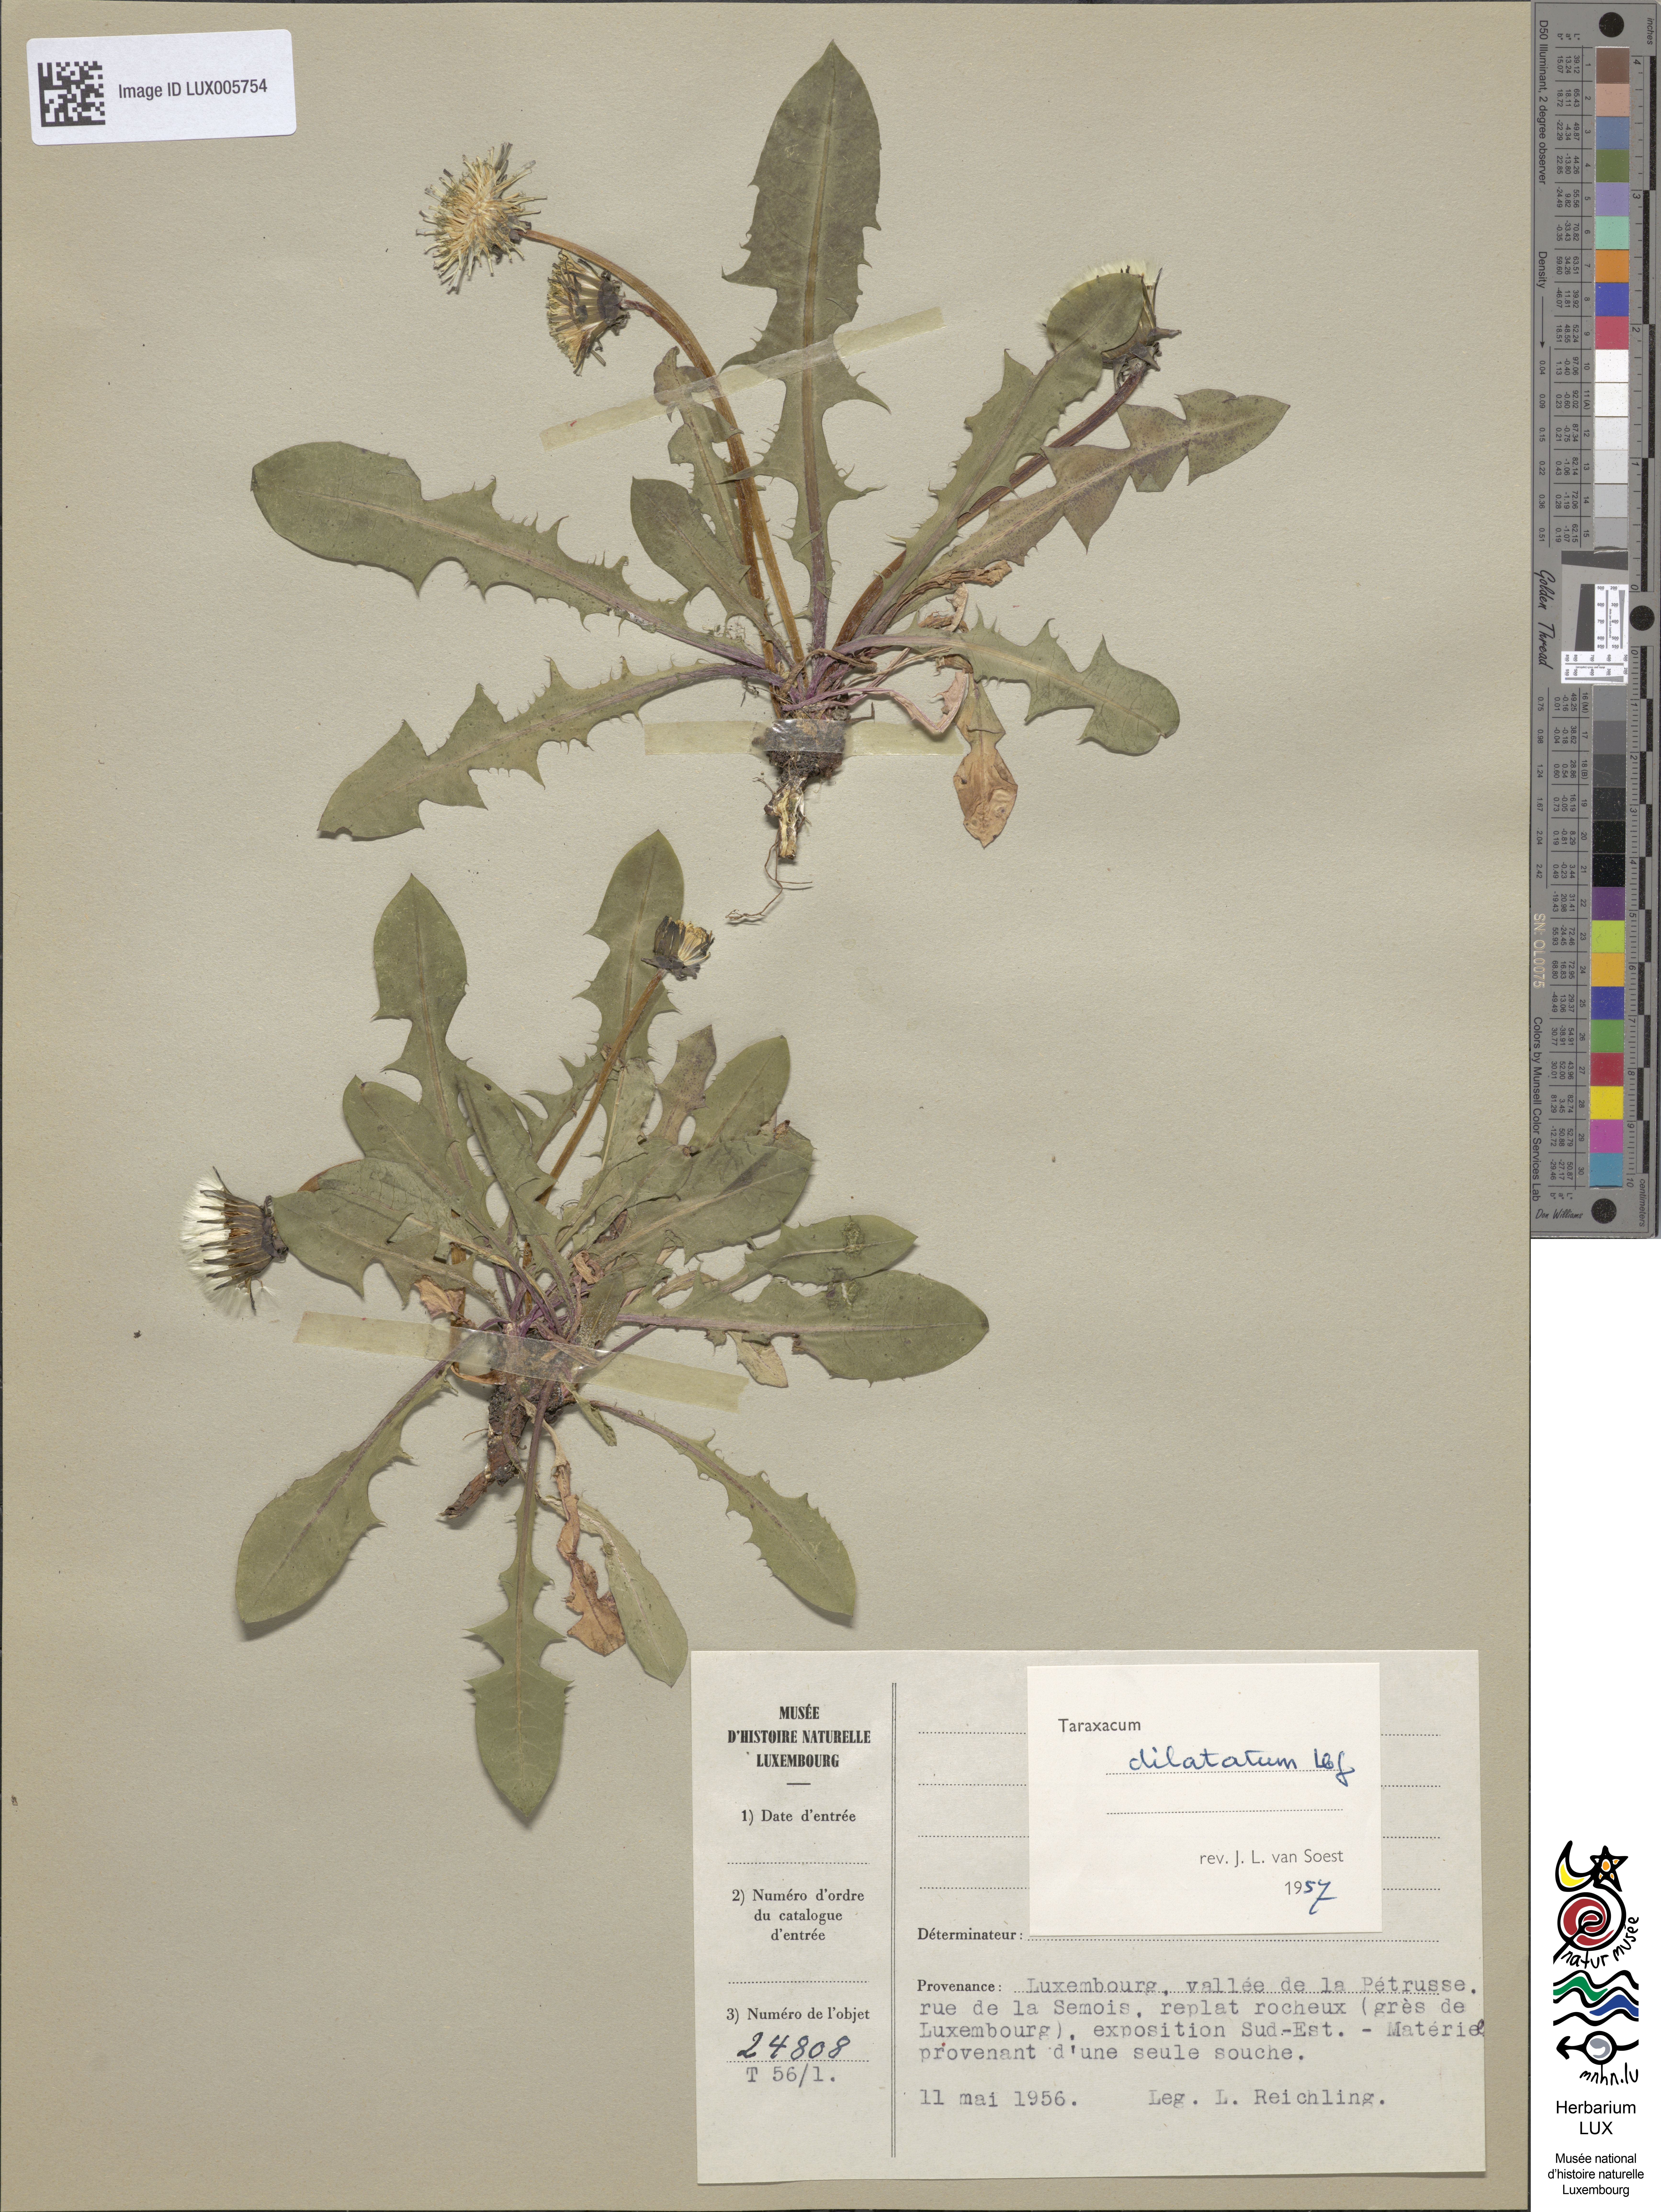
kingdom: Plantae
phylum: Tracheophyta
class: Magnoliopsida
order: Asterales
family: Asteraceae
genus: Taraxacum
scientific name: Taraxacum dilatatum
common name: Grassland dandelion
